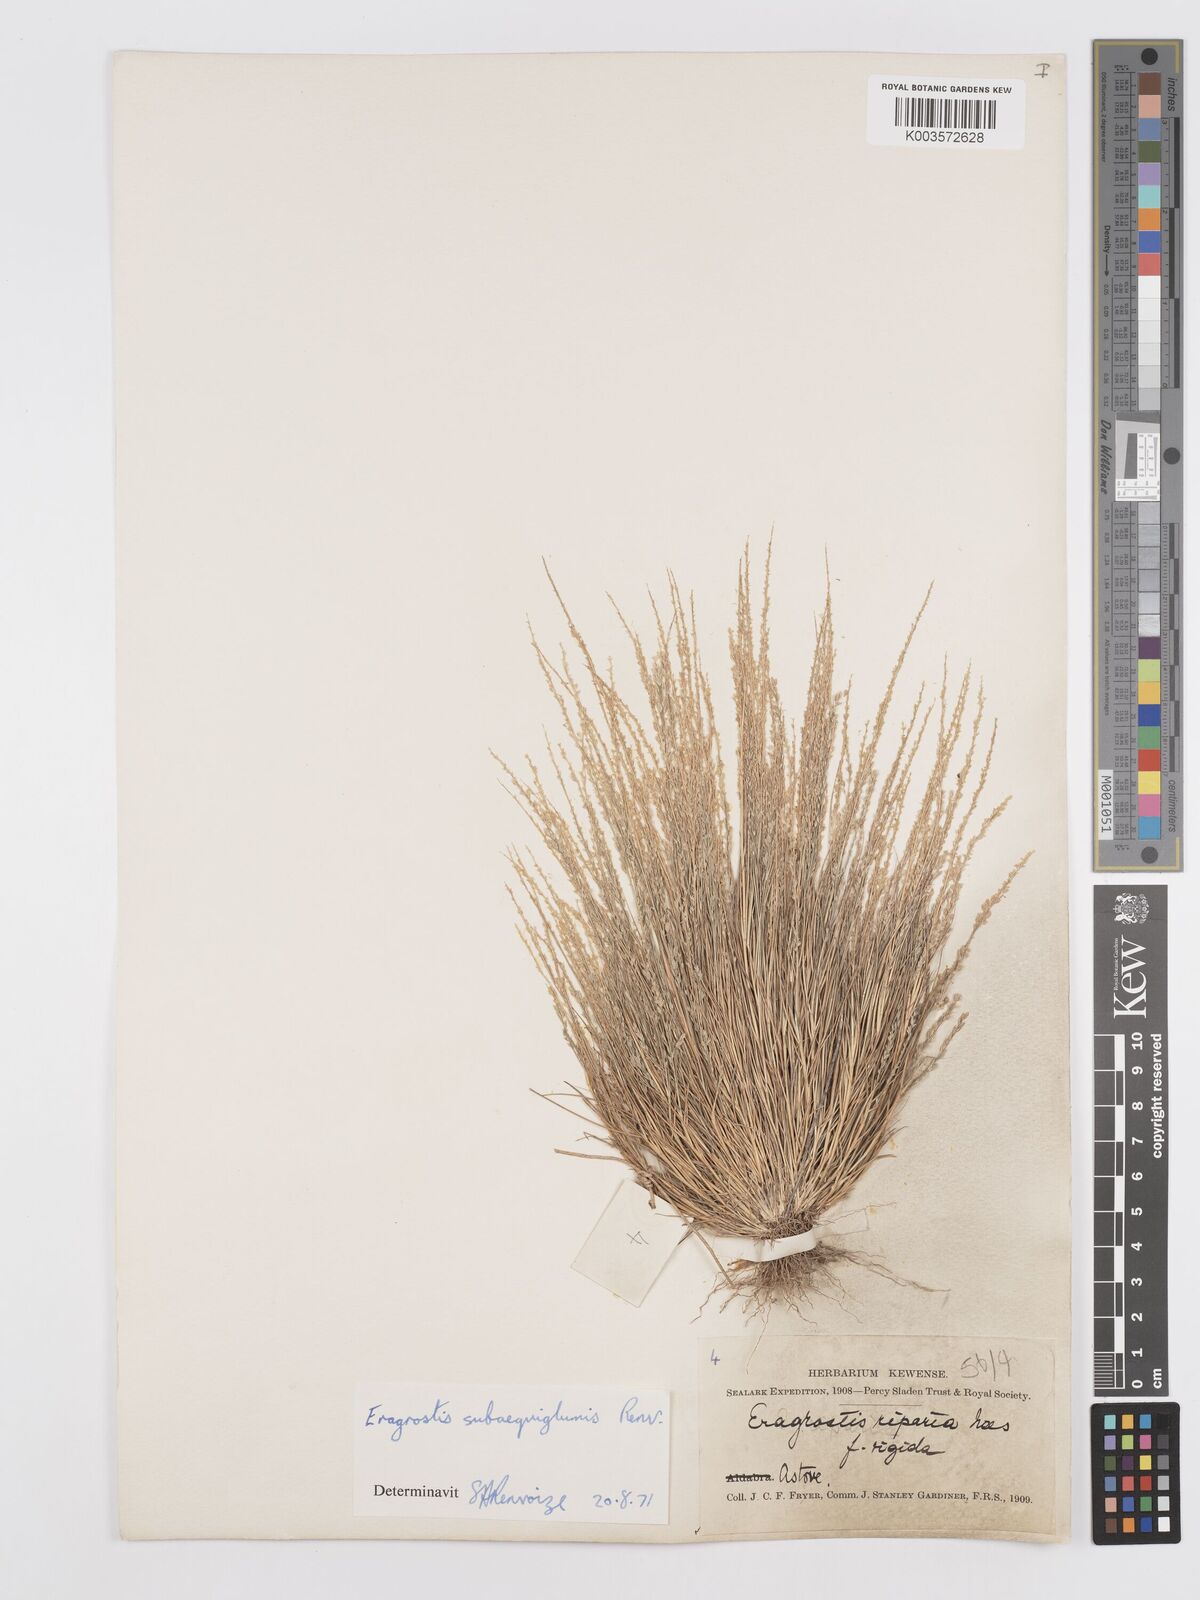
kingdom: Plantae
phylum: Tracheophyta
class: Liliopsida
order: Poales
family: Poaceae
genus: Eragrostis
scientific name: Eragrostis subaequiglumis
